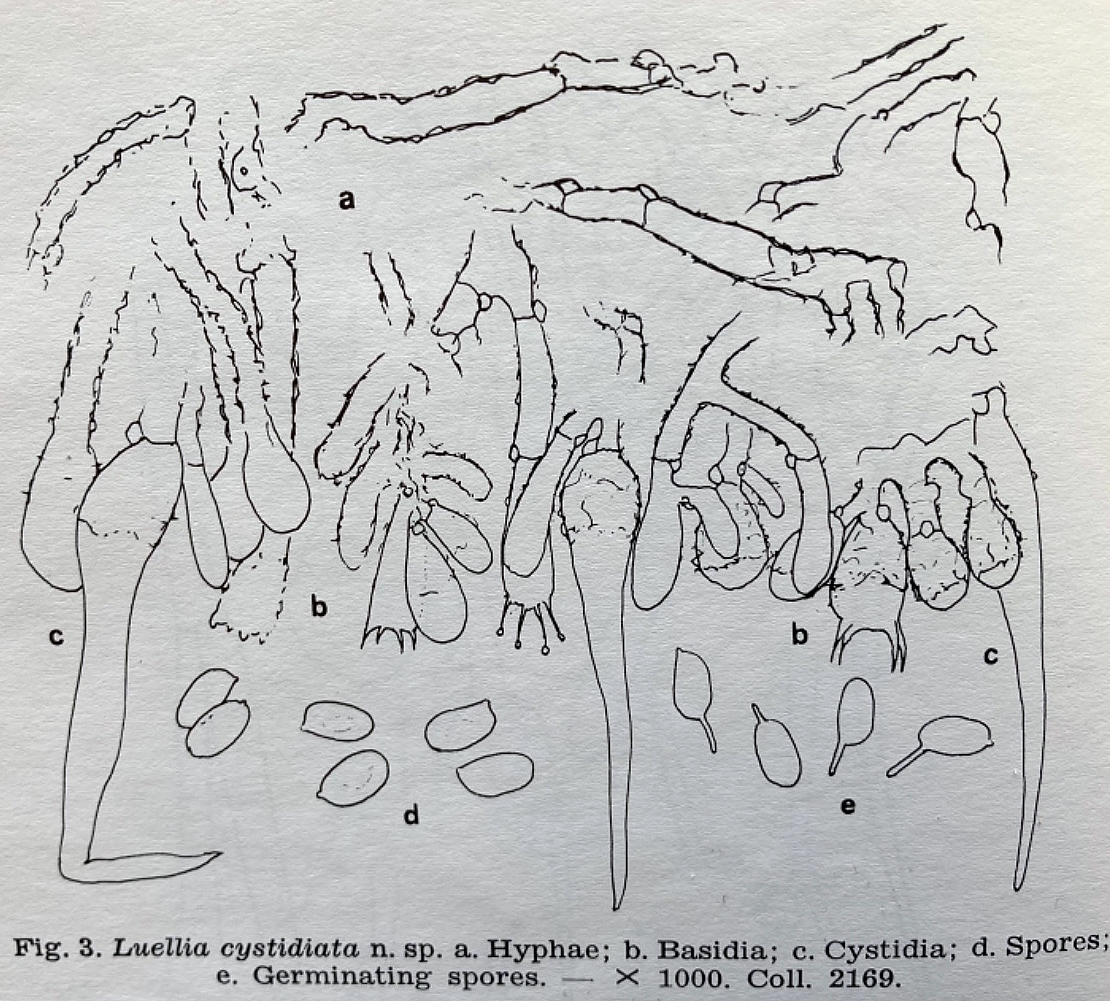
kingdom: Fungi
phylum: Basidiomycota
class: Agaricomycetes
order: Trechisporales
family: Hydnodontaceae
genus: Luellia
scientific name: Luellia cystidiata
